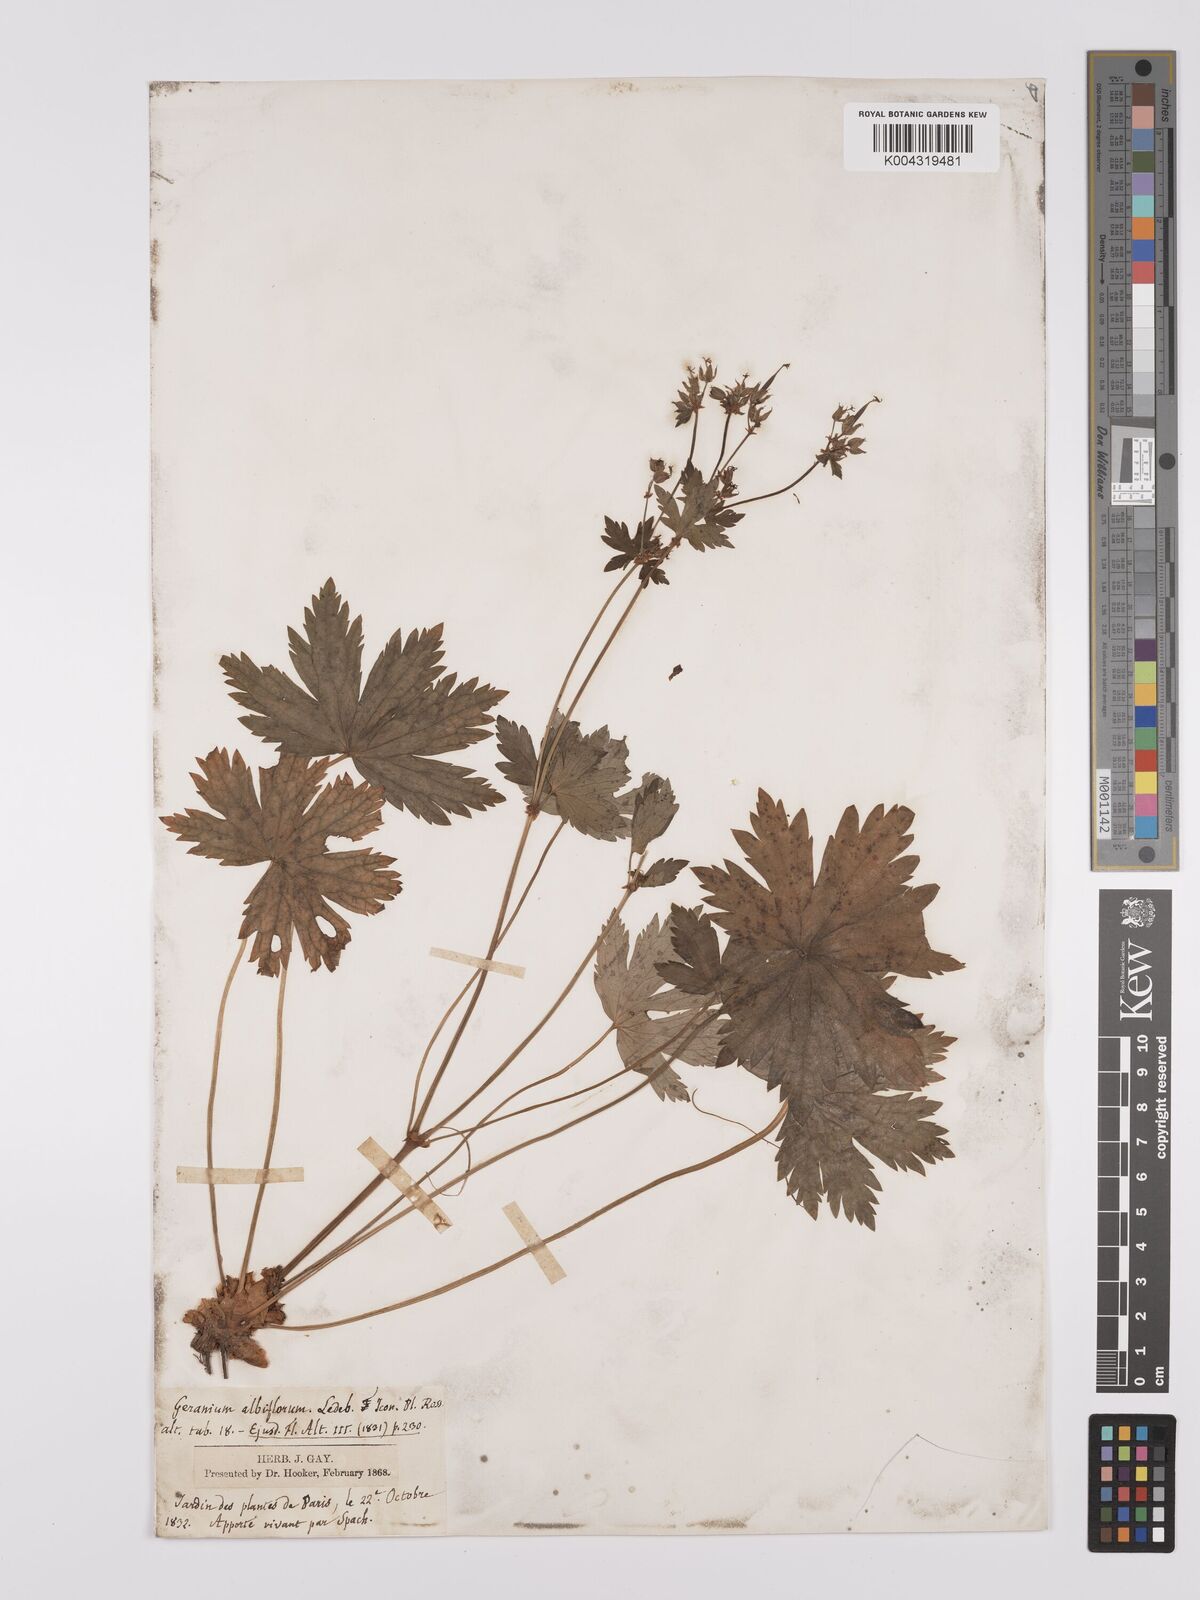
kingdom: Plantae
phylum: Tracheophyta
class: Magnoliopsida
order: Geraniales
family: Geraniaceae
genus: Geranium
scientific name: Geranium
